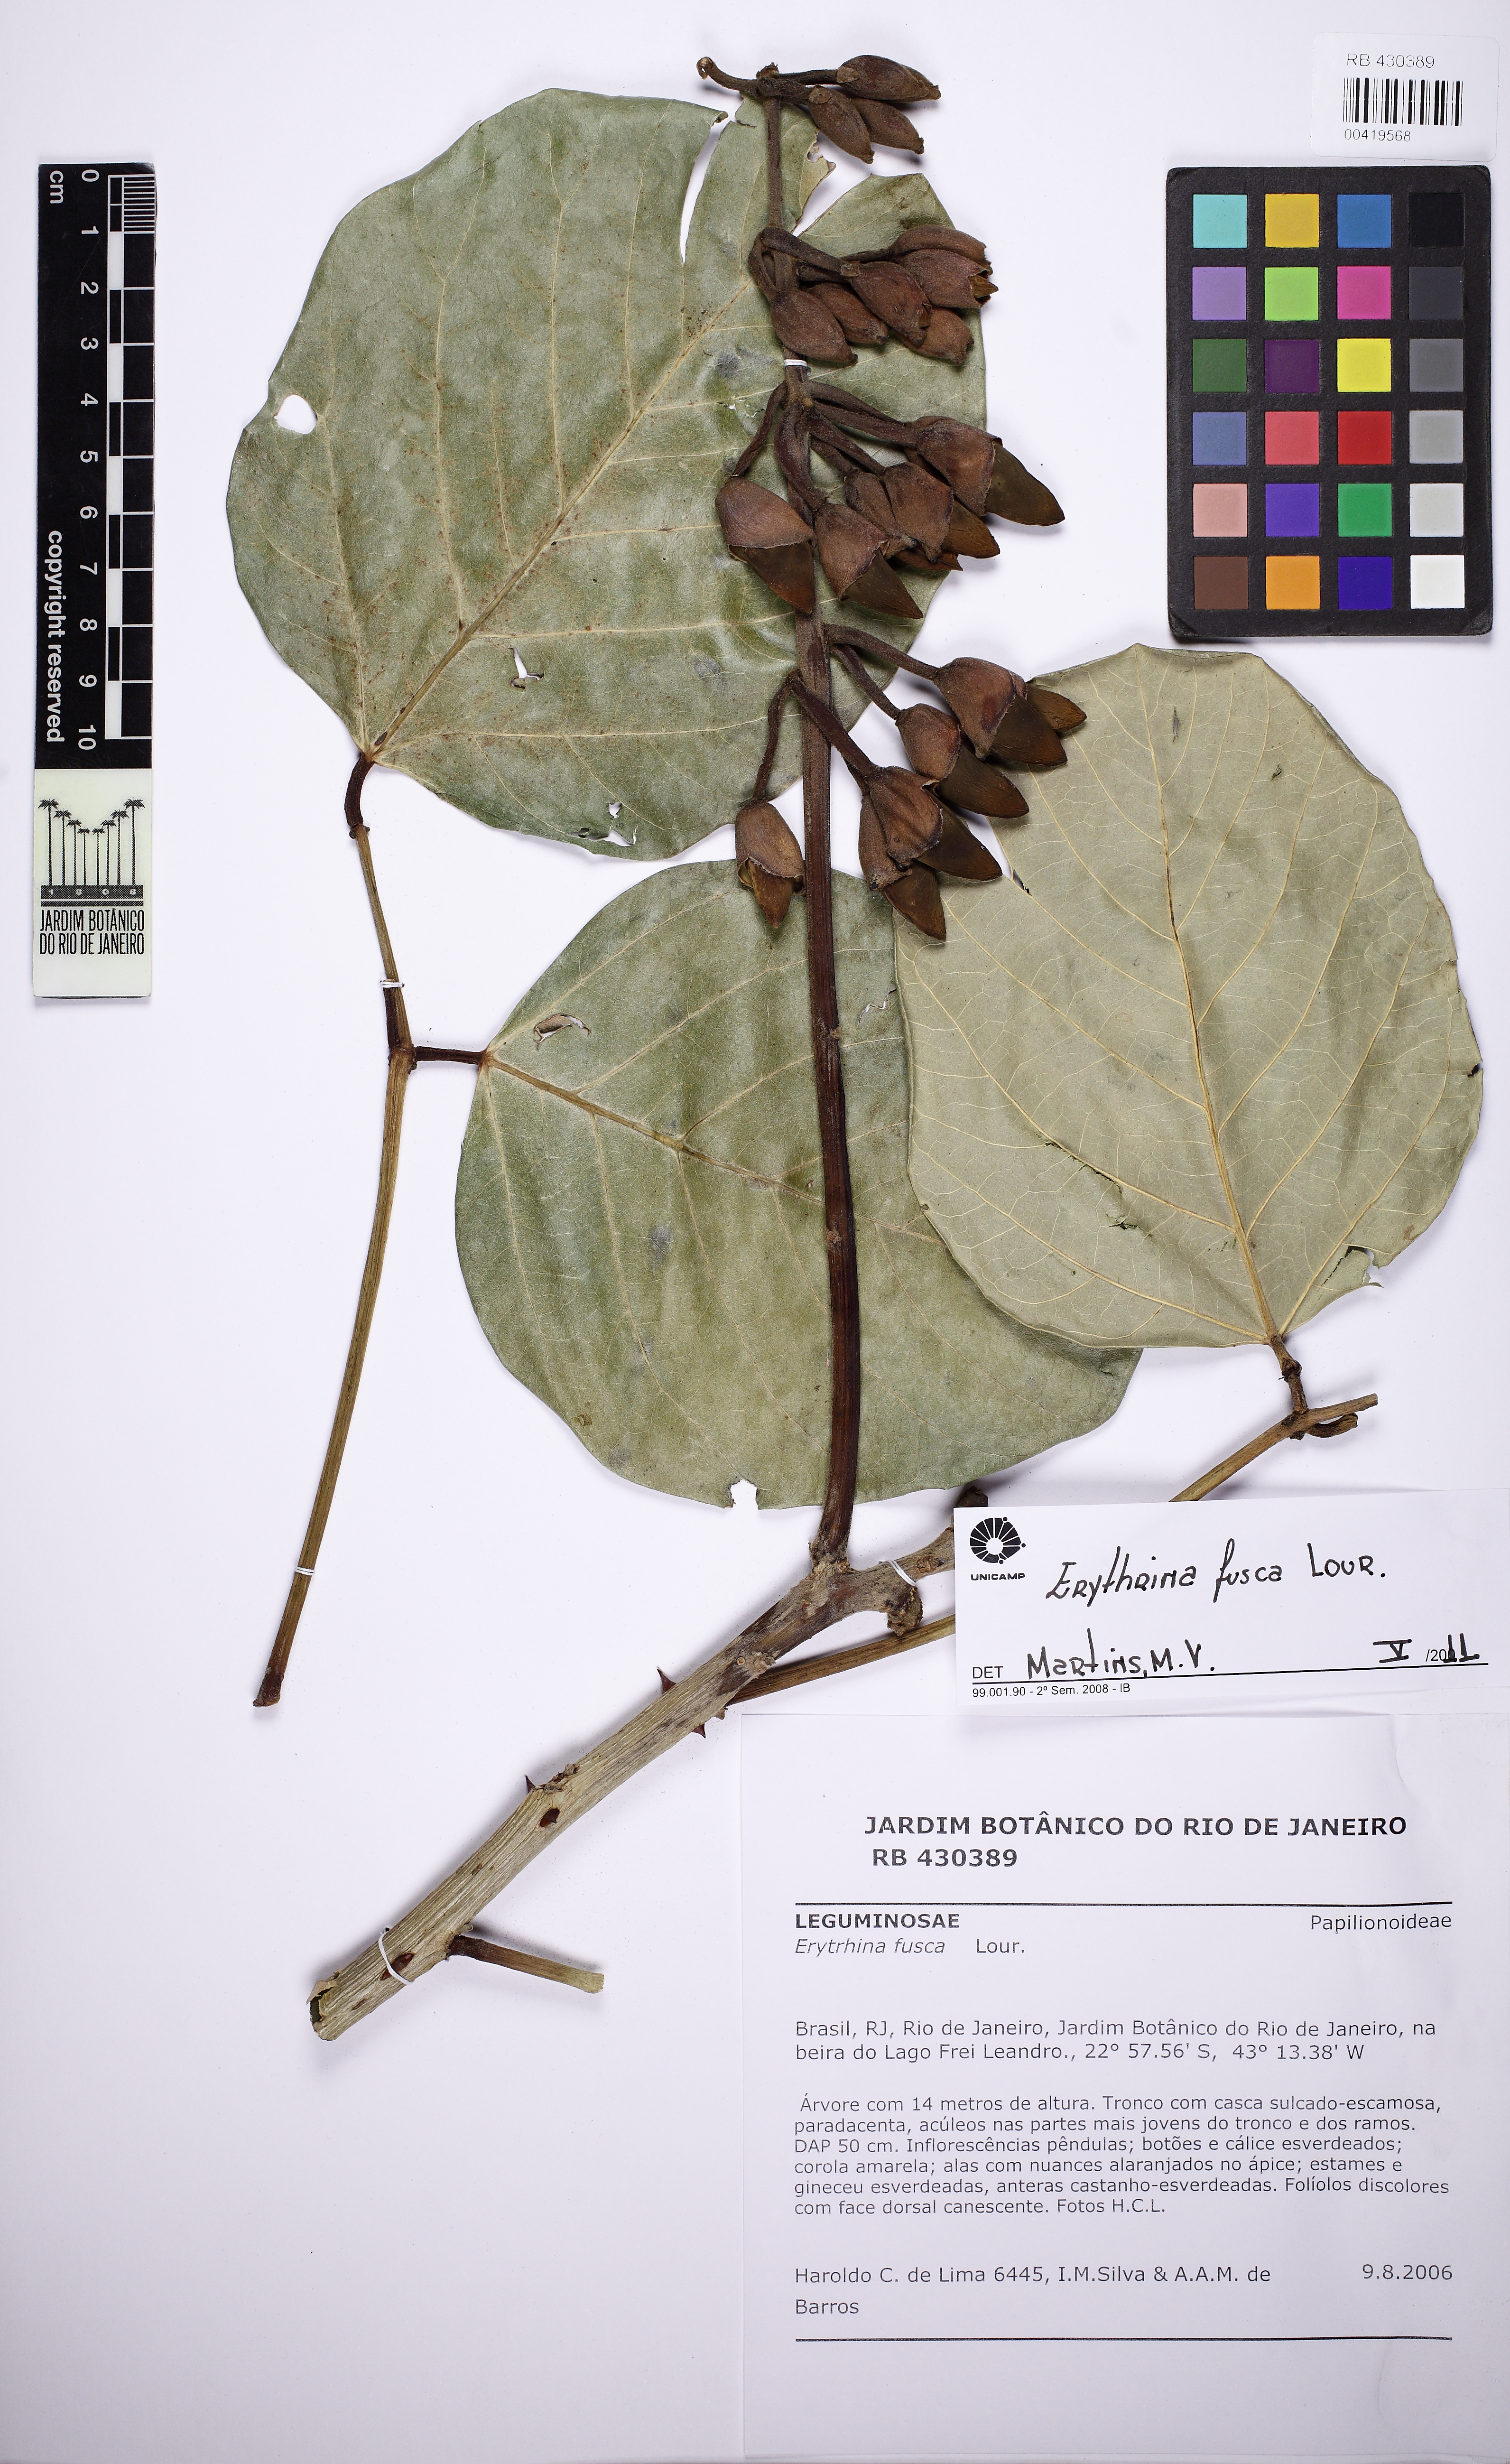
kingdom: Plantae
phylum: Tracheophyta
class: Magnoliopsida
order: Fabales
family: Fabaceae
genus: Erythrina
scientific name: Erythrina fusca
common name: Coral-bean
